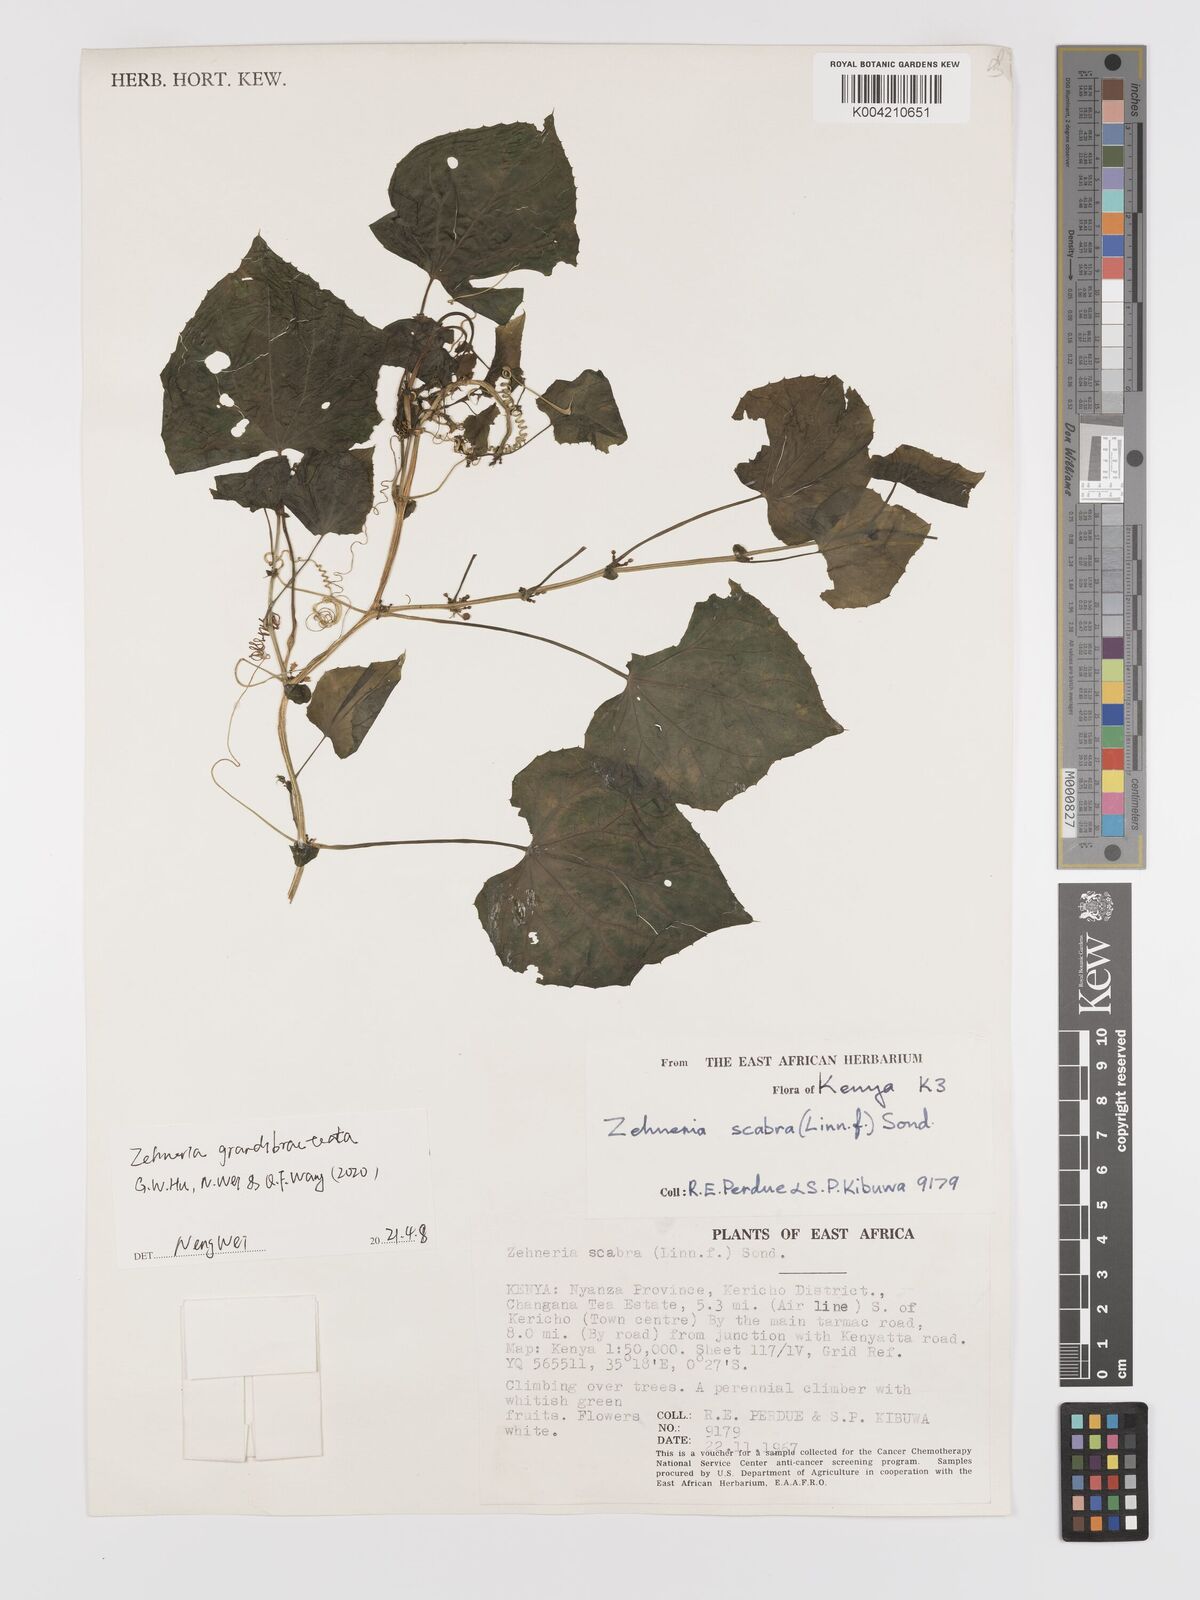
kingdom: Plantae
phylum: Tracheophyta
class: Magnoliopsida
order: Cucurbitales
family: Cucurbitaceae
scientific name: Cucurbitaceae
